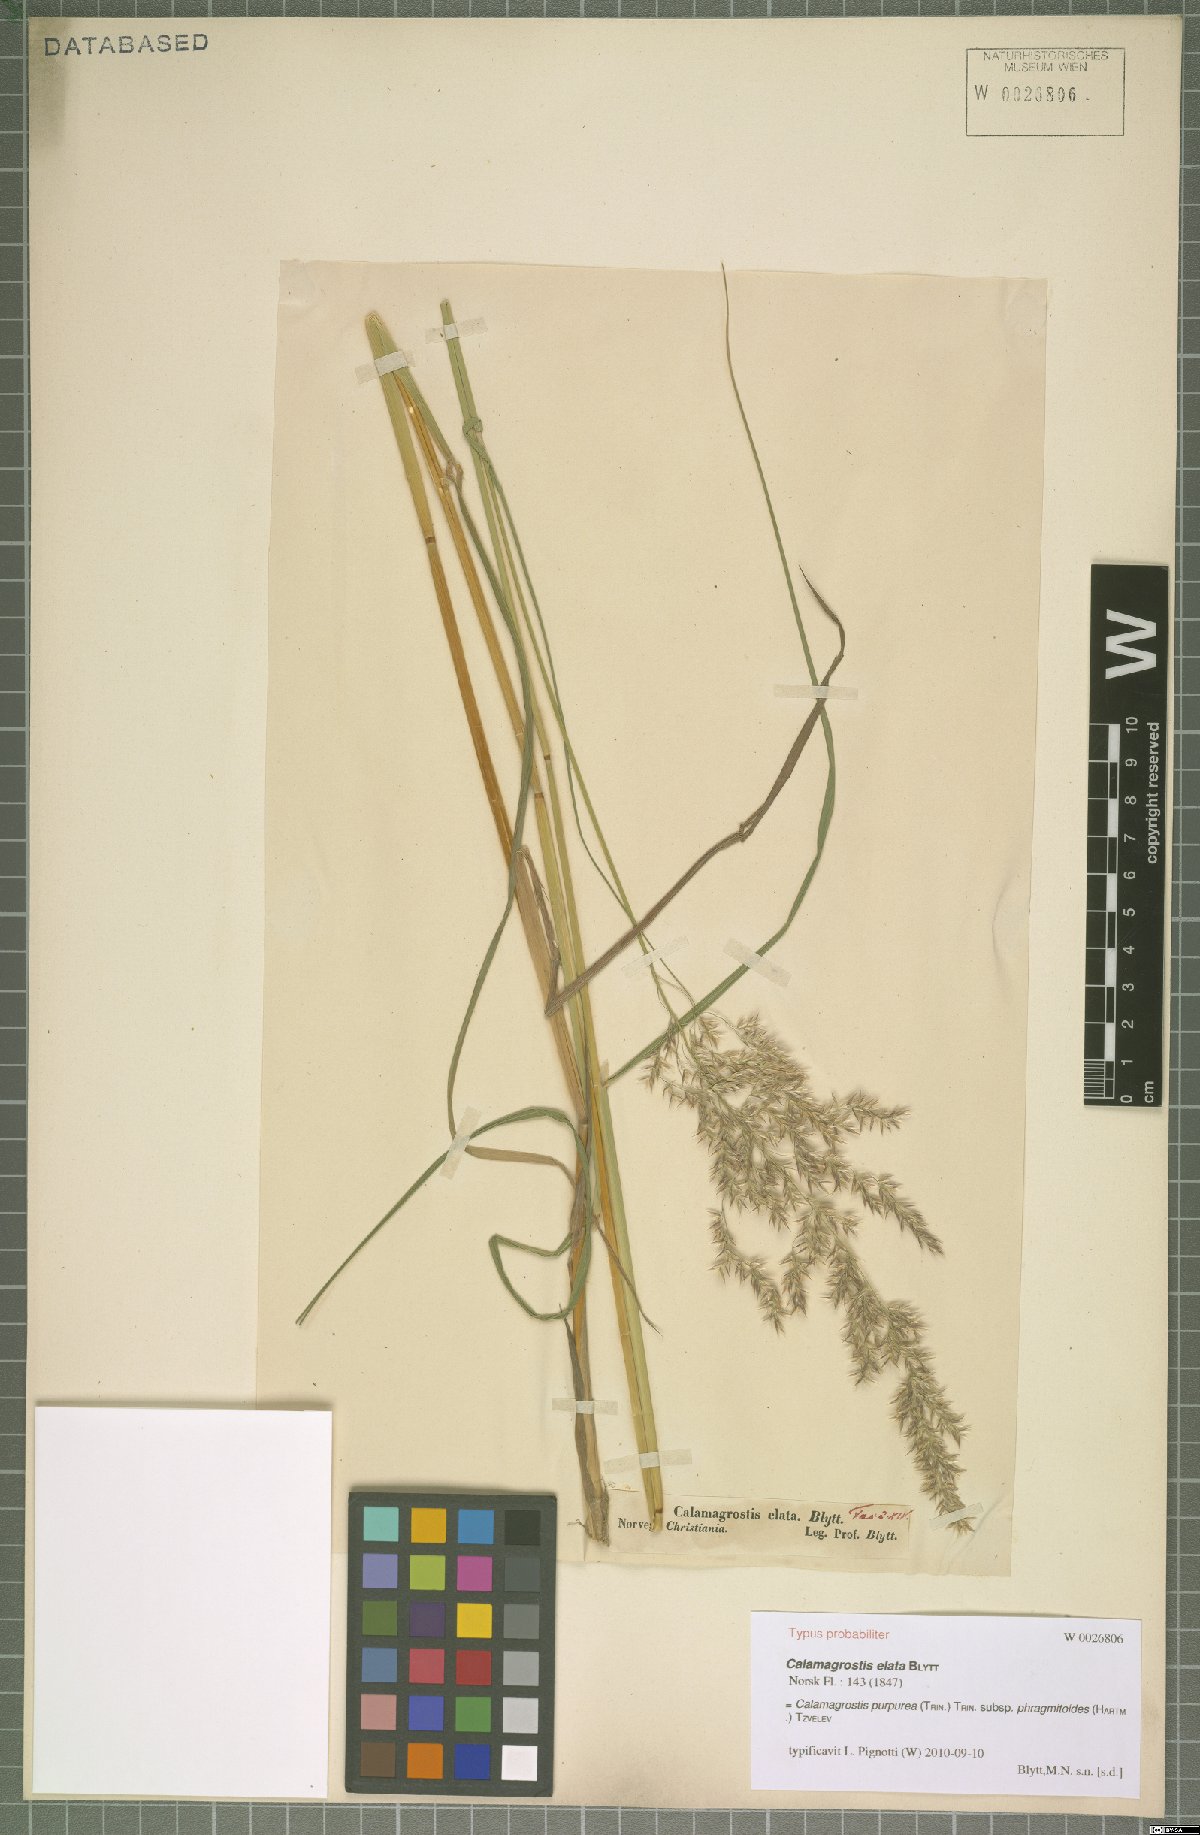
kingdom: Plantae
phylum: Tracheophyta
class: Liliopsida
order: Poales
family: Poaceae
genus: Calamagrostis
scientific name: Calamagrostis purpurea
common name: Scandinavian small-reed
